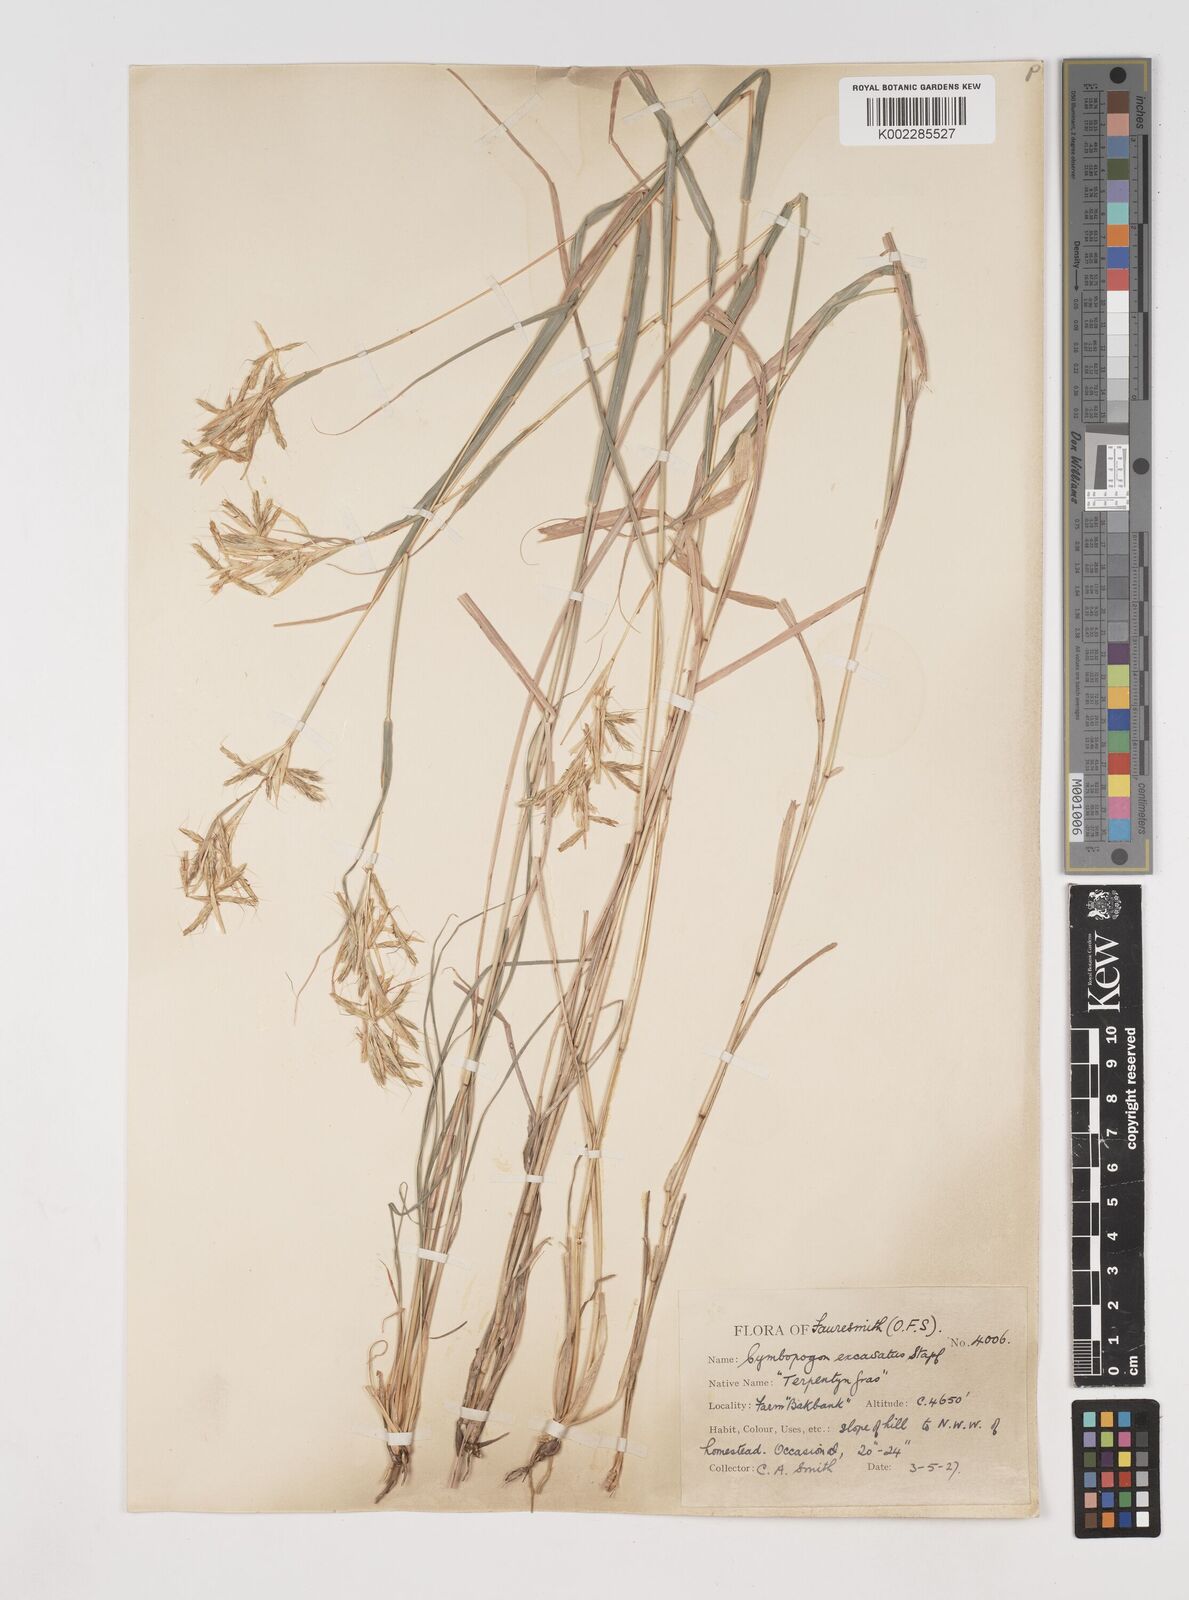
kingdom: Plantae
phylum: Tracheophyta
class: Liliopsida
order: Poales
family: Poaceae
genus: Cymbopogon
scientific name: Cymbopogon caesius
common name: Kachi grass
